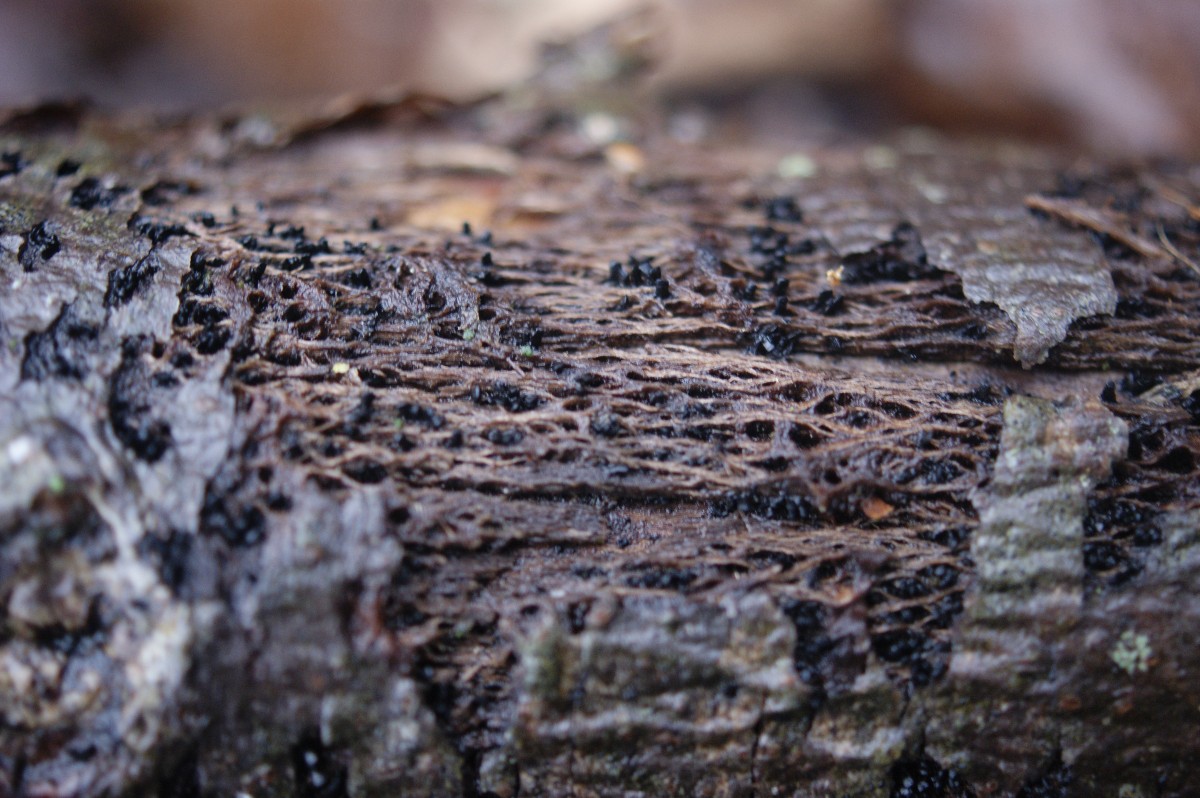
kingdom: Fungi
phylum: Ascomycota
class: Eurotiomycetes
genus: Glyphium
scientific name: Glyphium elatum
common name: kuløkse
